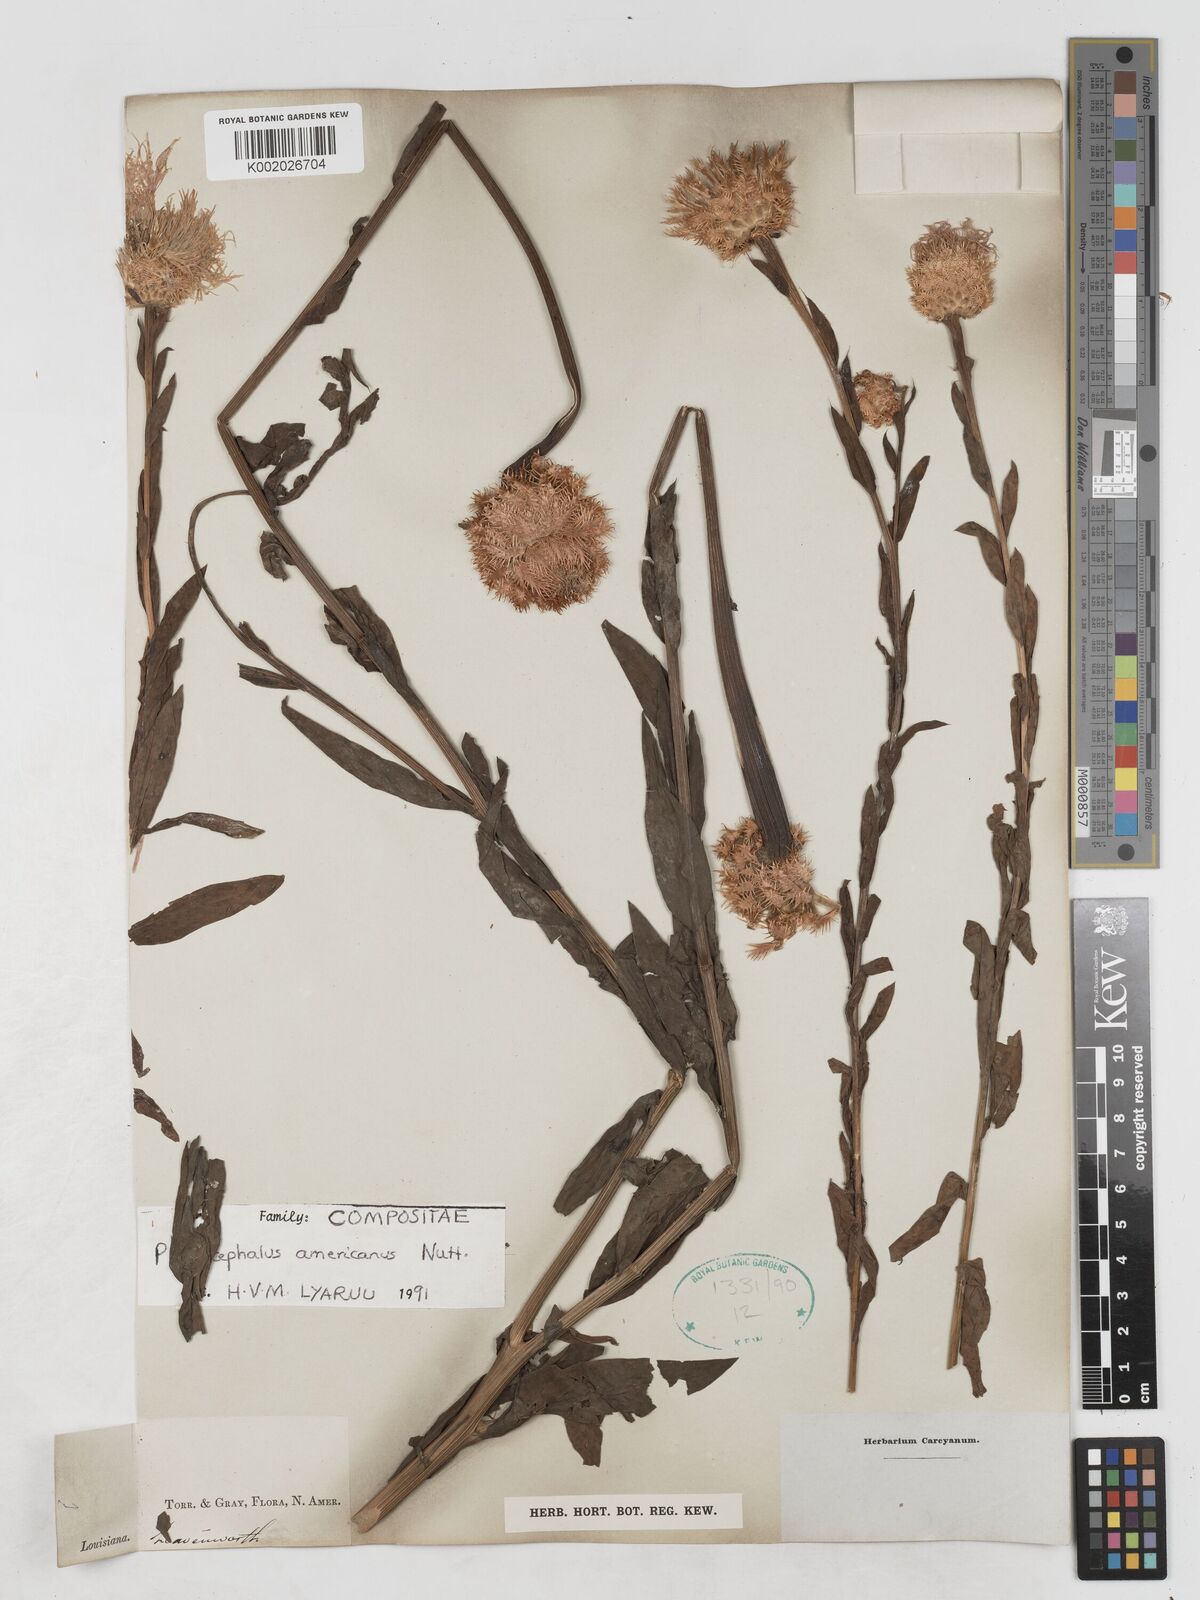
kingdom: Plantae
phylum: Tracheophyta
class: Magnoliopsida
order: Asterales
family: Asteraceae
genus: Plectocephalus
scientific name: Plectocephalus americanus
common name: American basket-flower
